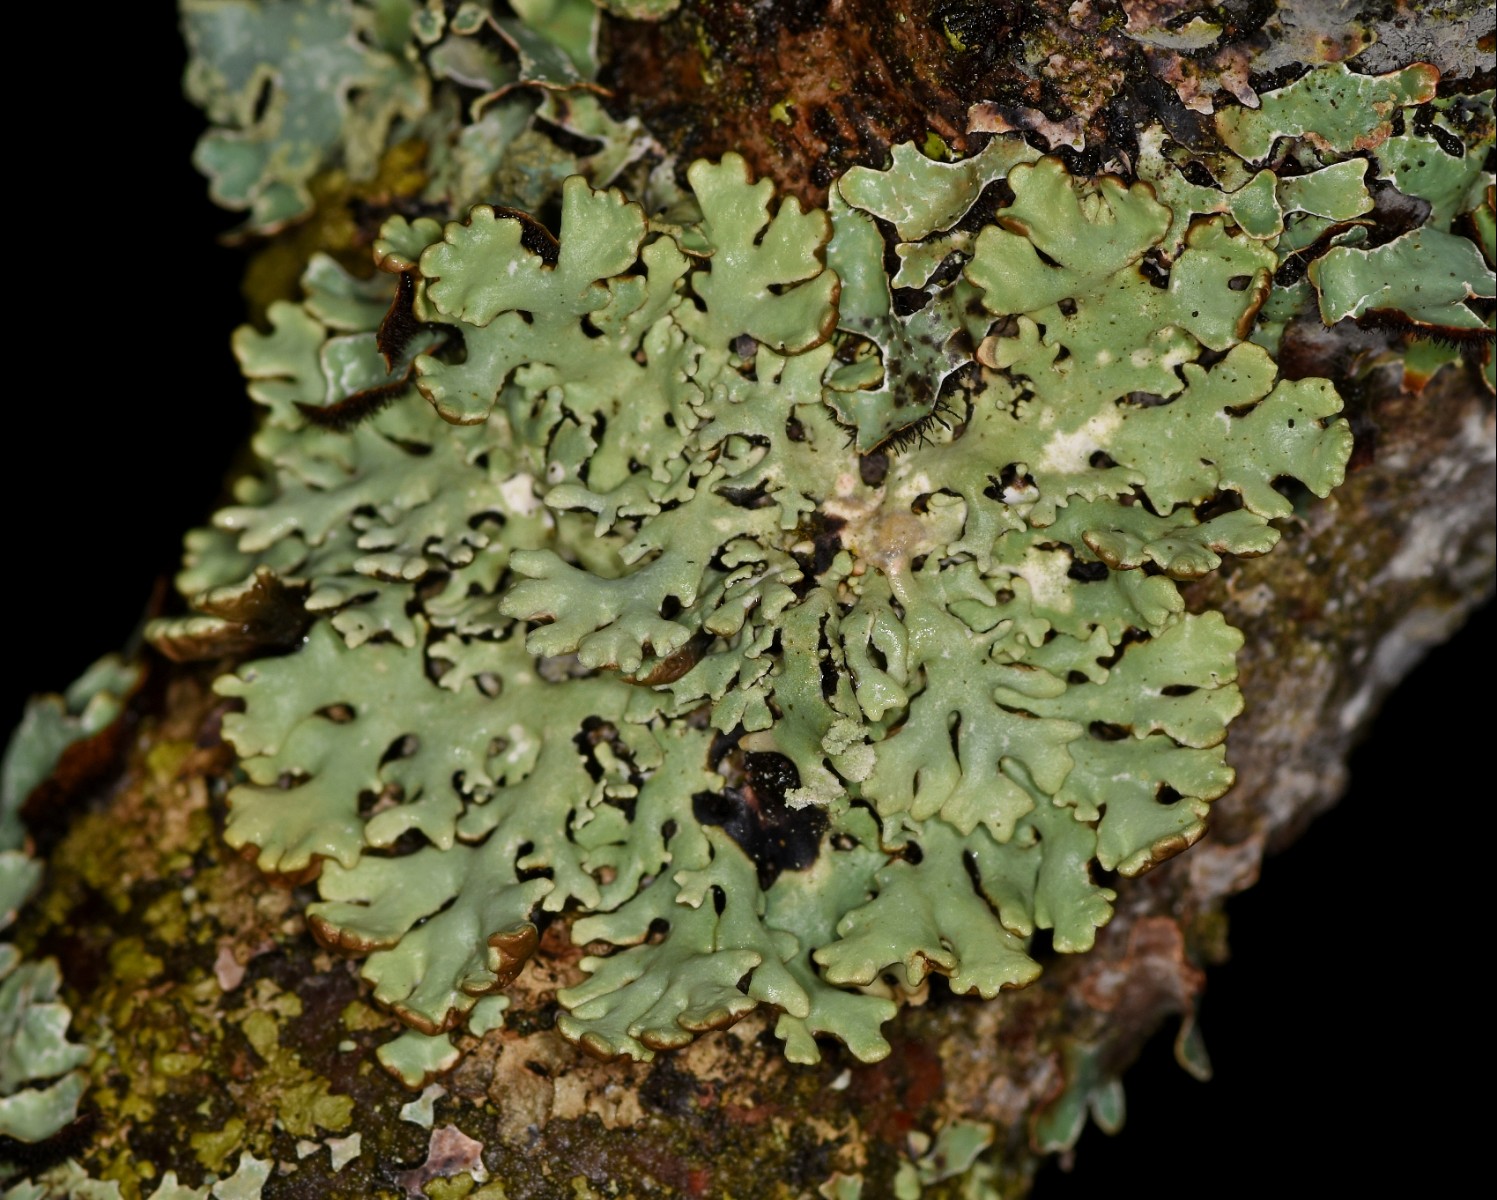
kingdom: Fungi
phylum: Ascomycota
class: Lecanoromycetes
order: Lecanorales
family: Parmeliaceae
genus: Hypogymnia
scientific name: Hypogymnia physodes
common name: almindelig kvistlav
